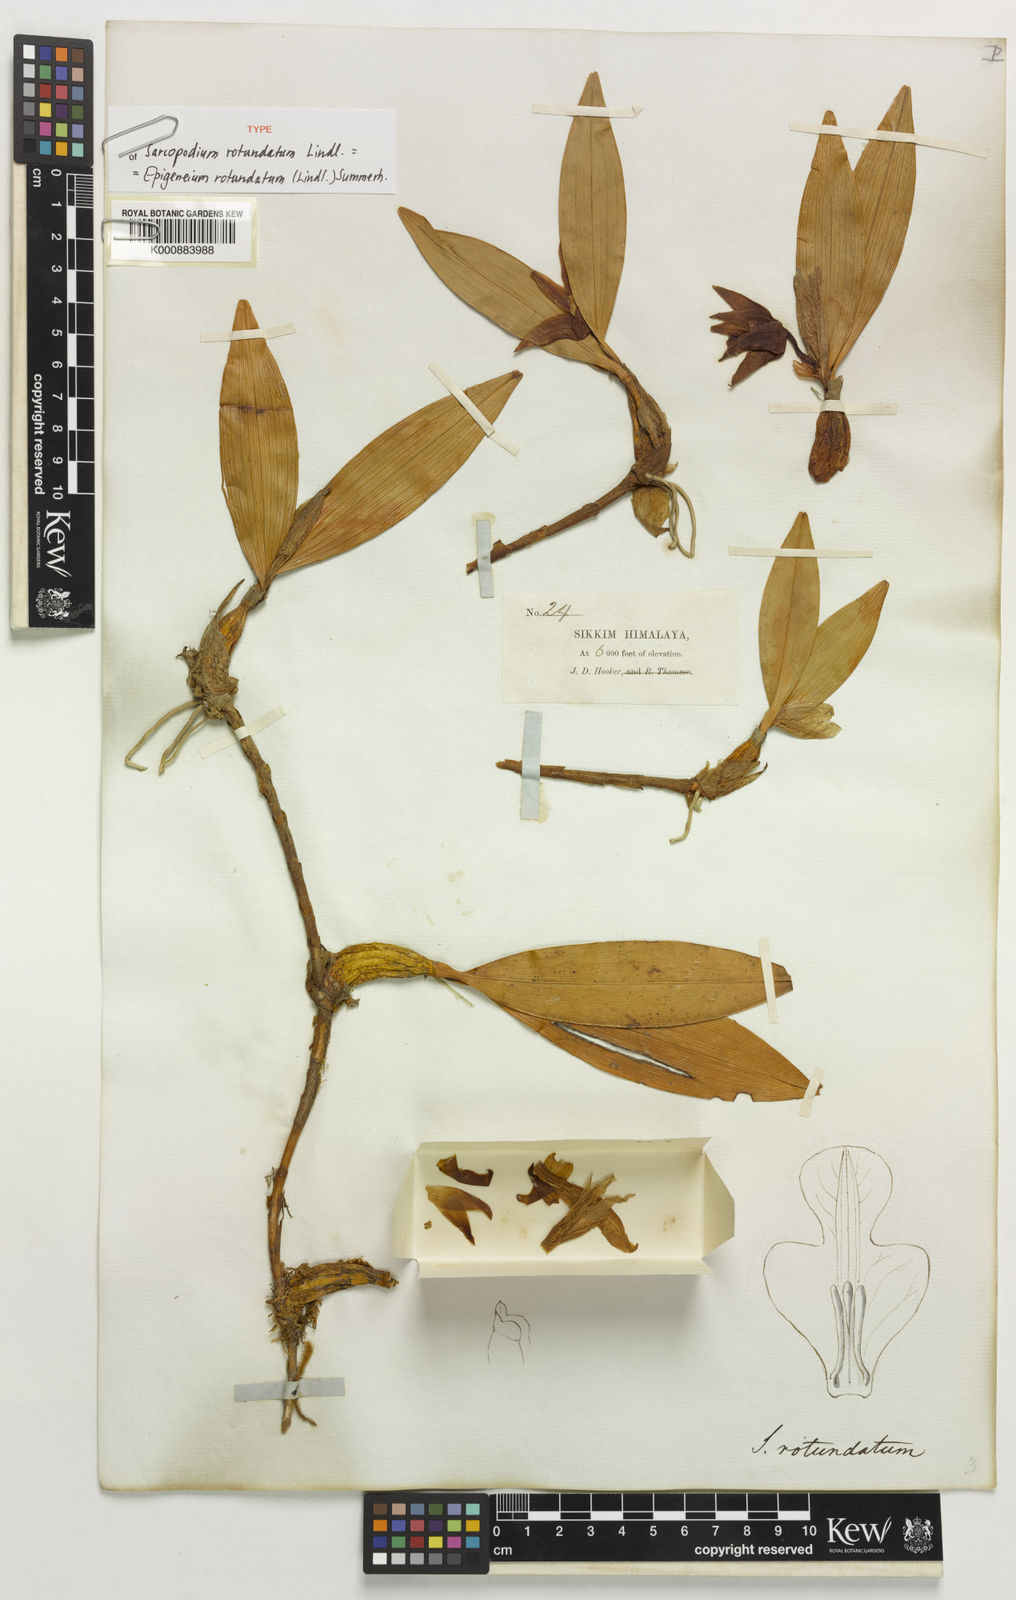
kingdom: Plantae
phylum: Tracheophyta
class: Liliopsida
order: Asparagales
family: Orchidaceae
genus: Dendrobium
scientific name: Dendrobium rotundatum
